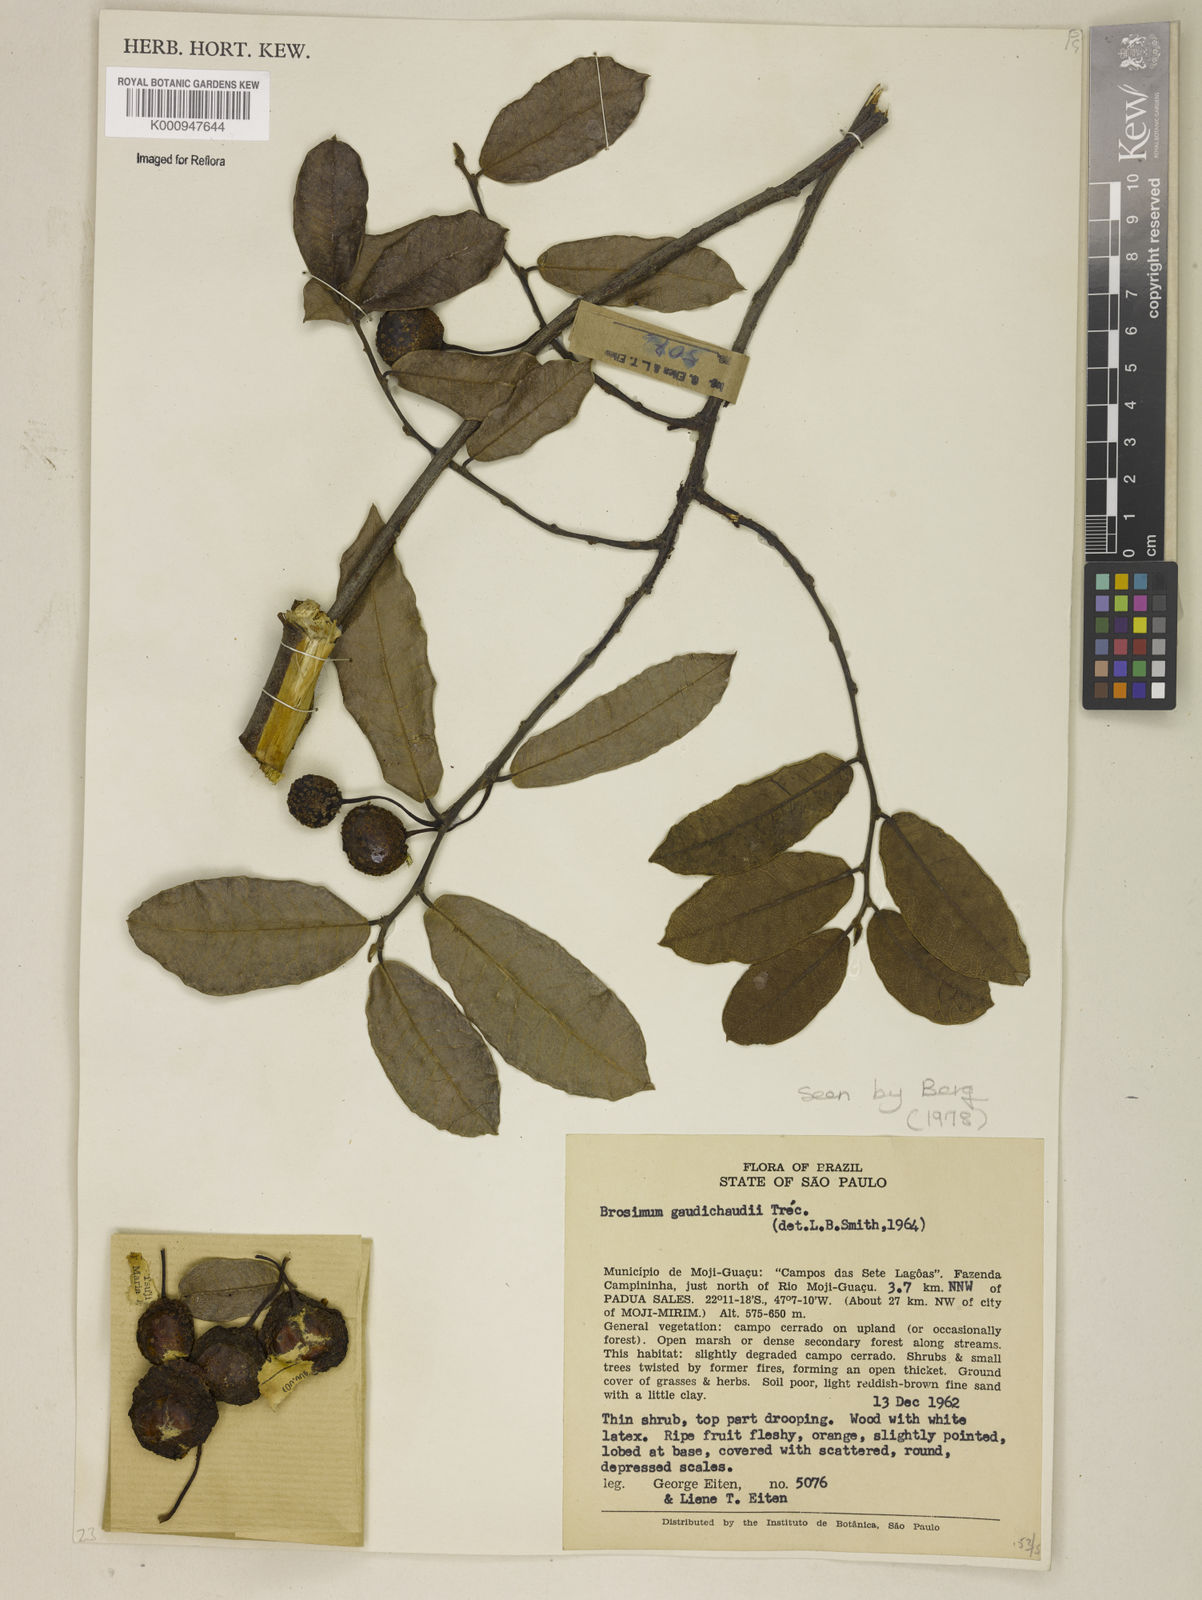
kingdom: Plantae
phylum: Tracheophyta
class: Magnoliopsida
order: Rosales
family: Moraceae
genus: Brosimum
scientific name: Brosimum
